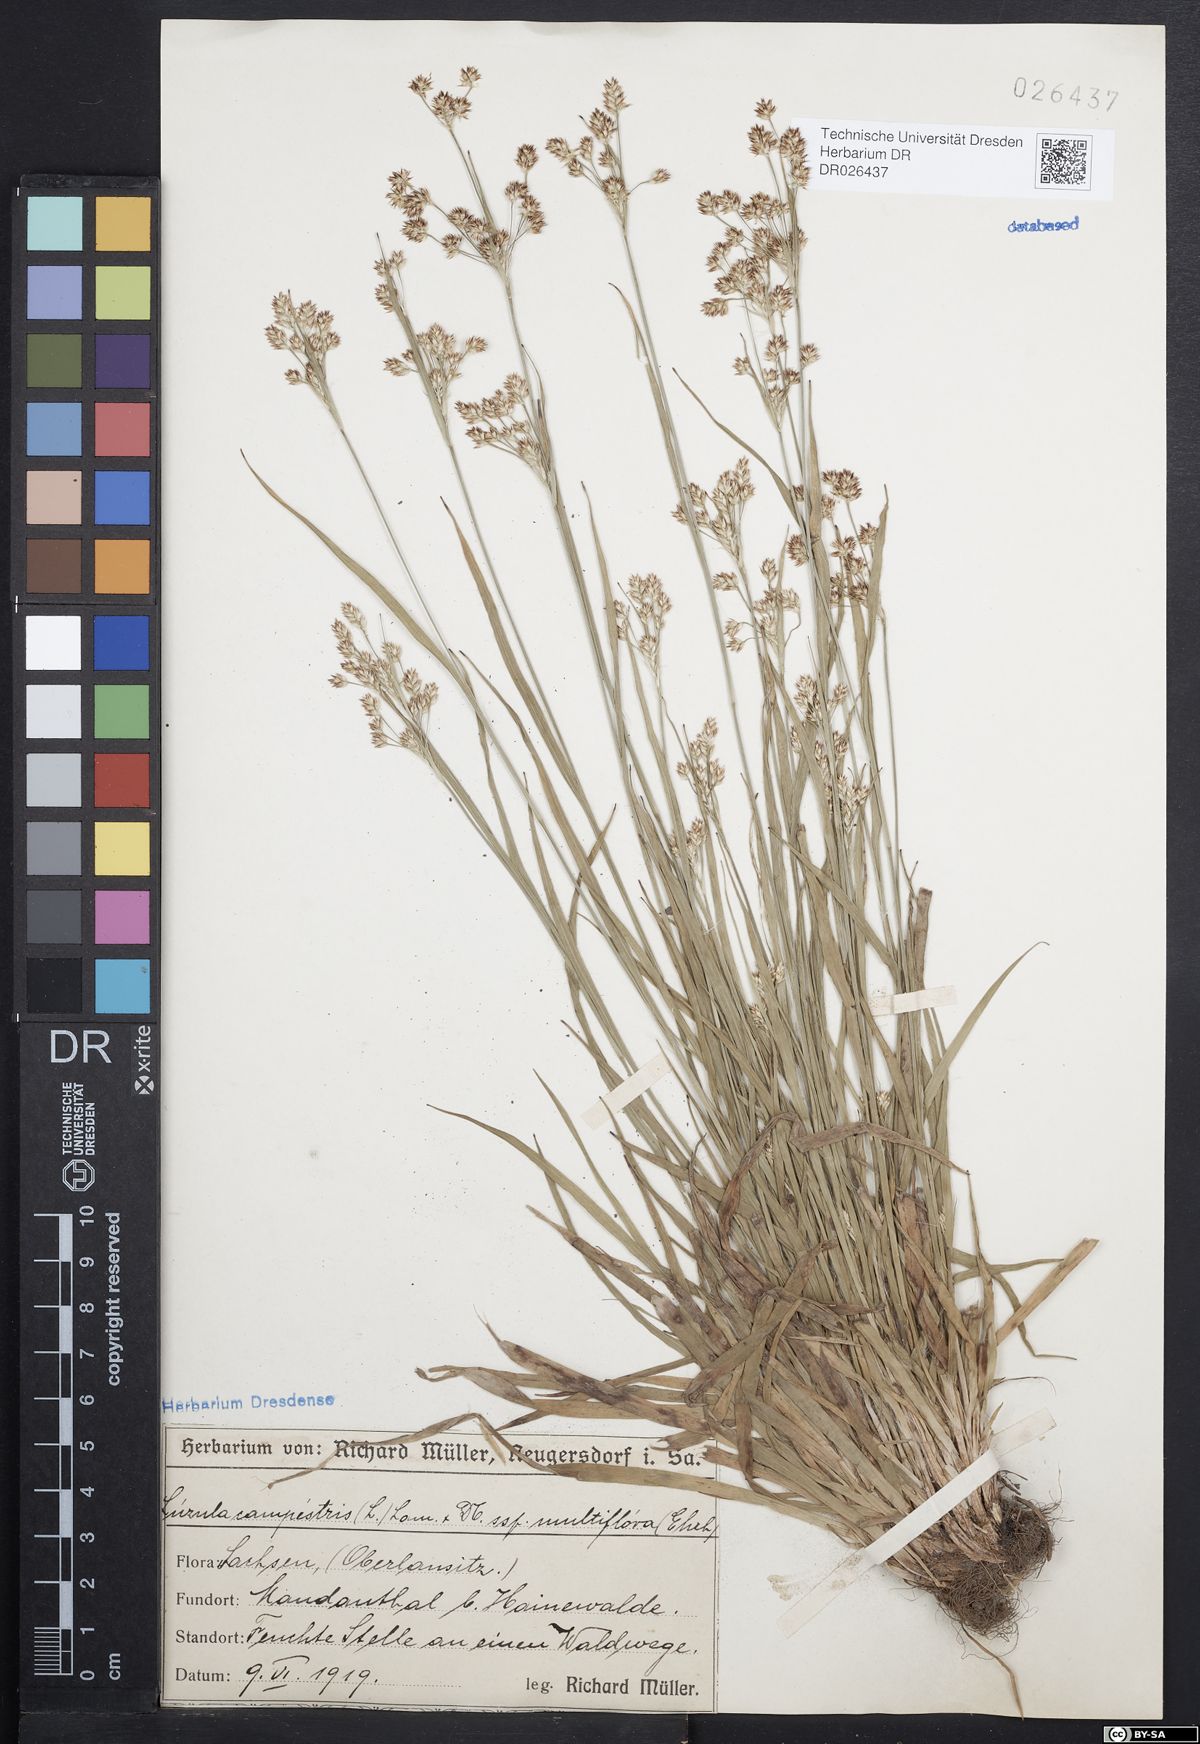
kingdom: Plantae
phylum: Tracheophyta
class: Liliopsida
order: Poales
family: Juncaceae
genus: Luzula
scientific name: Luzula multiflora
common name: Heath wood-rush
